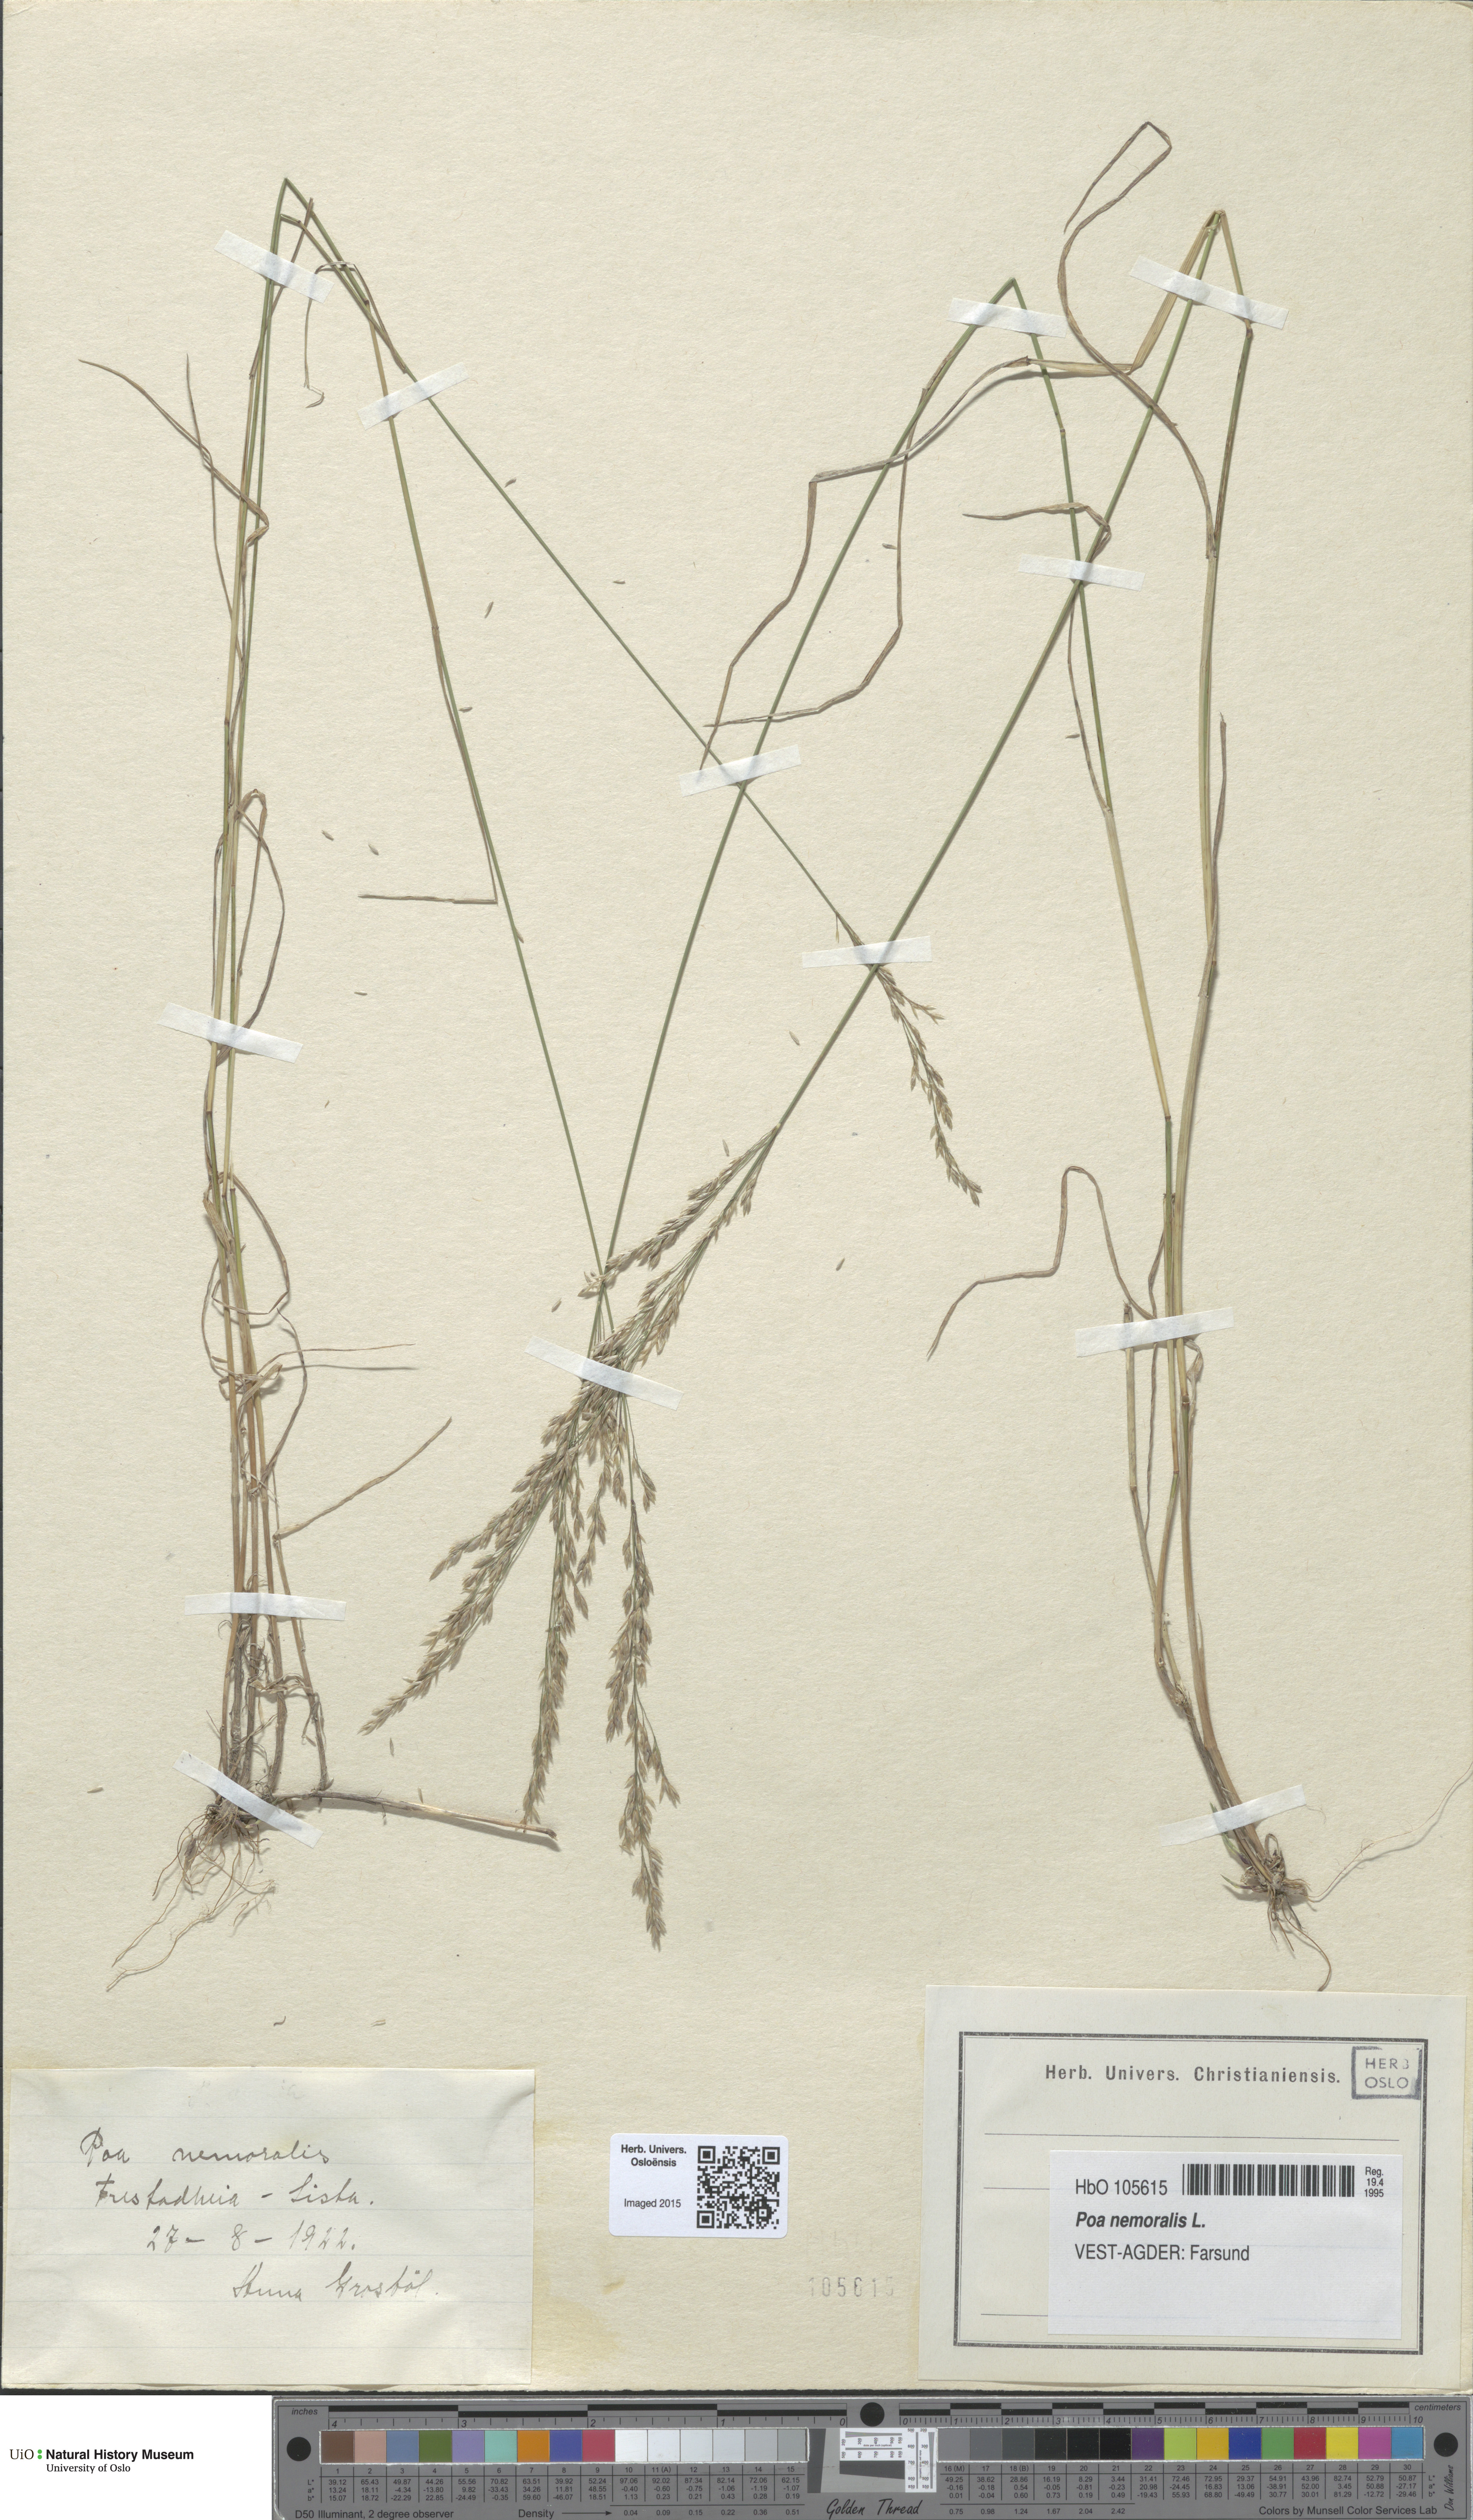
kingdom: Plantae
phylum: Tracheophyta
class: Liliopsida
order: Poales
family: Poaceae
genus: Poa
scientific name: Poa nemoralis
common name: Wood bluegrass
